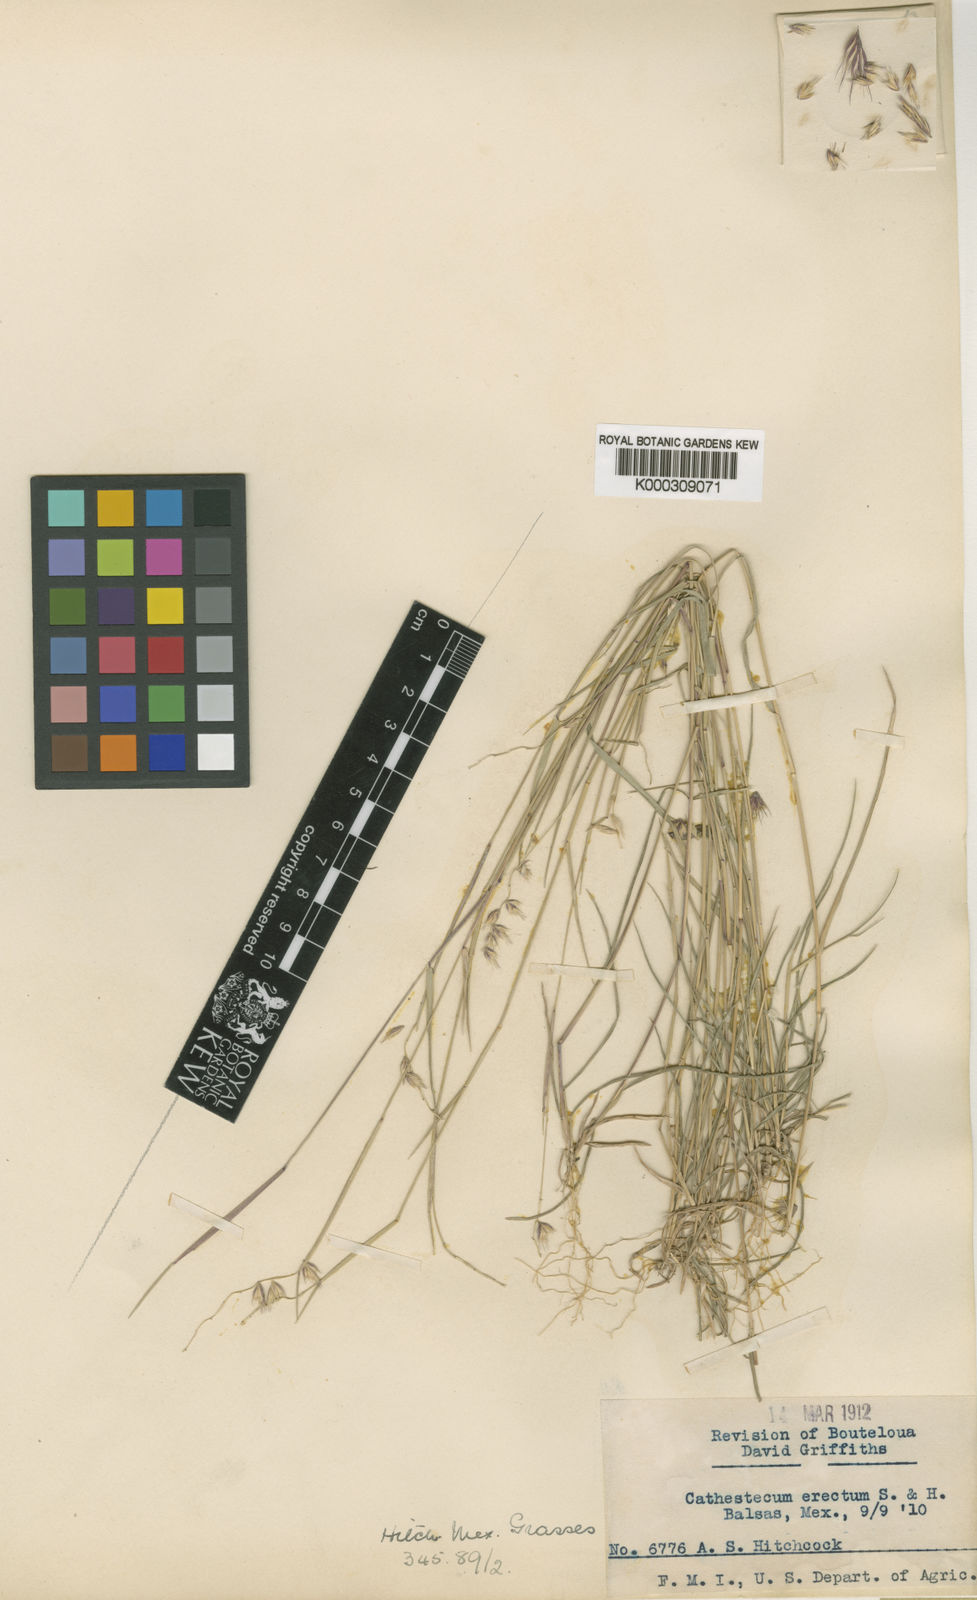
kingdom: Plantae
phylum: Tracheophyta
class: Liliopsida
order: Poales
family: Poaceae
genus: Bouteloua
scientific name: Bouteloua griffithsii
